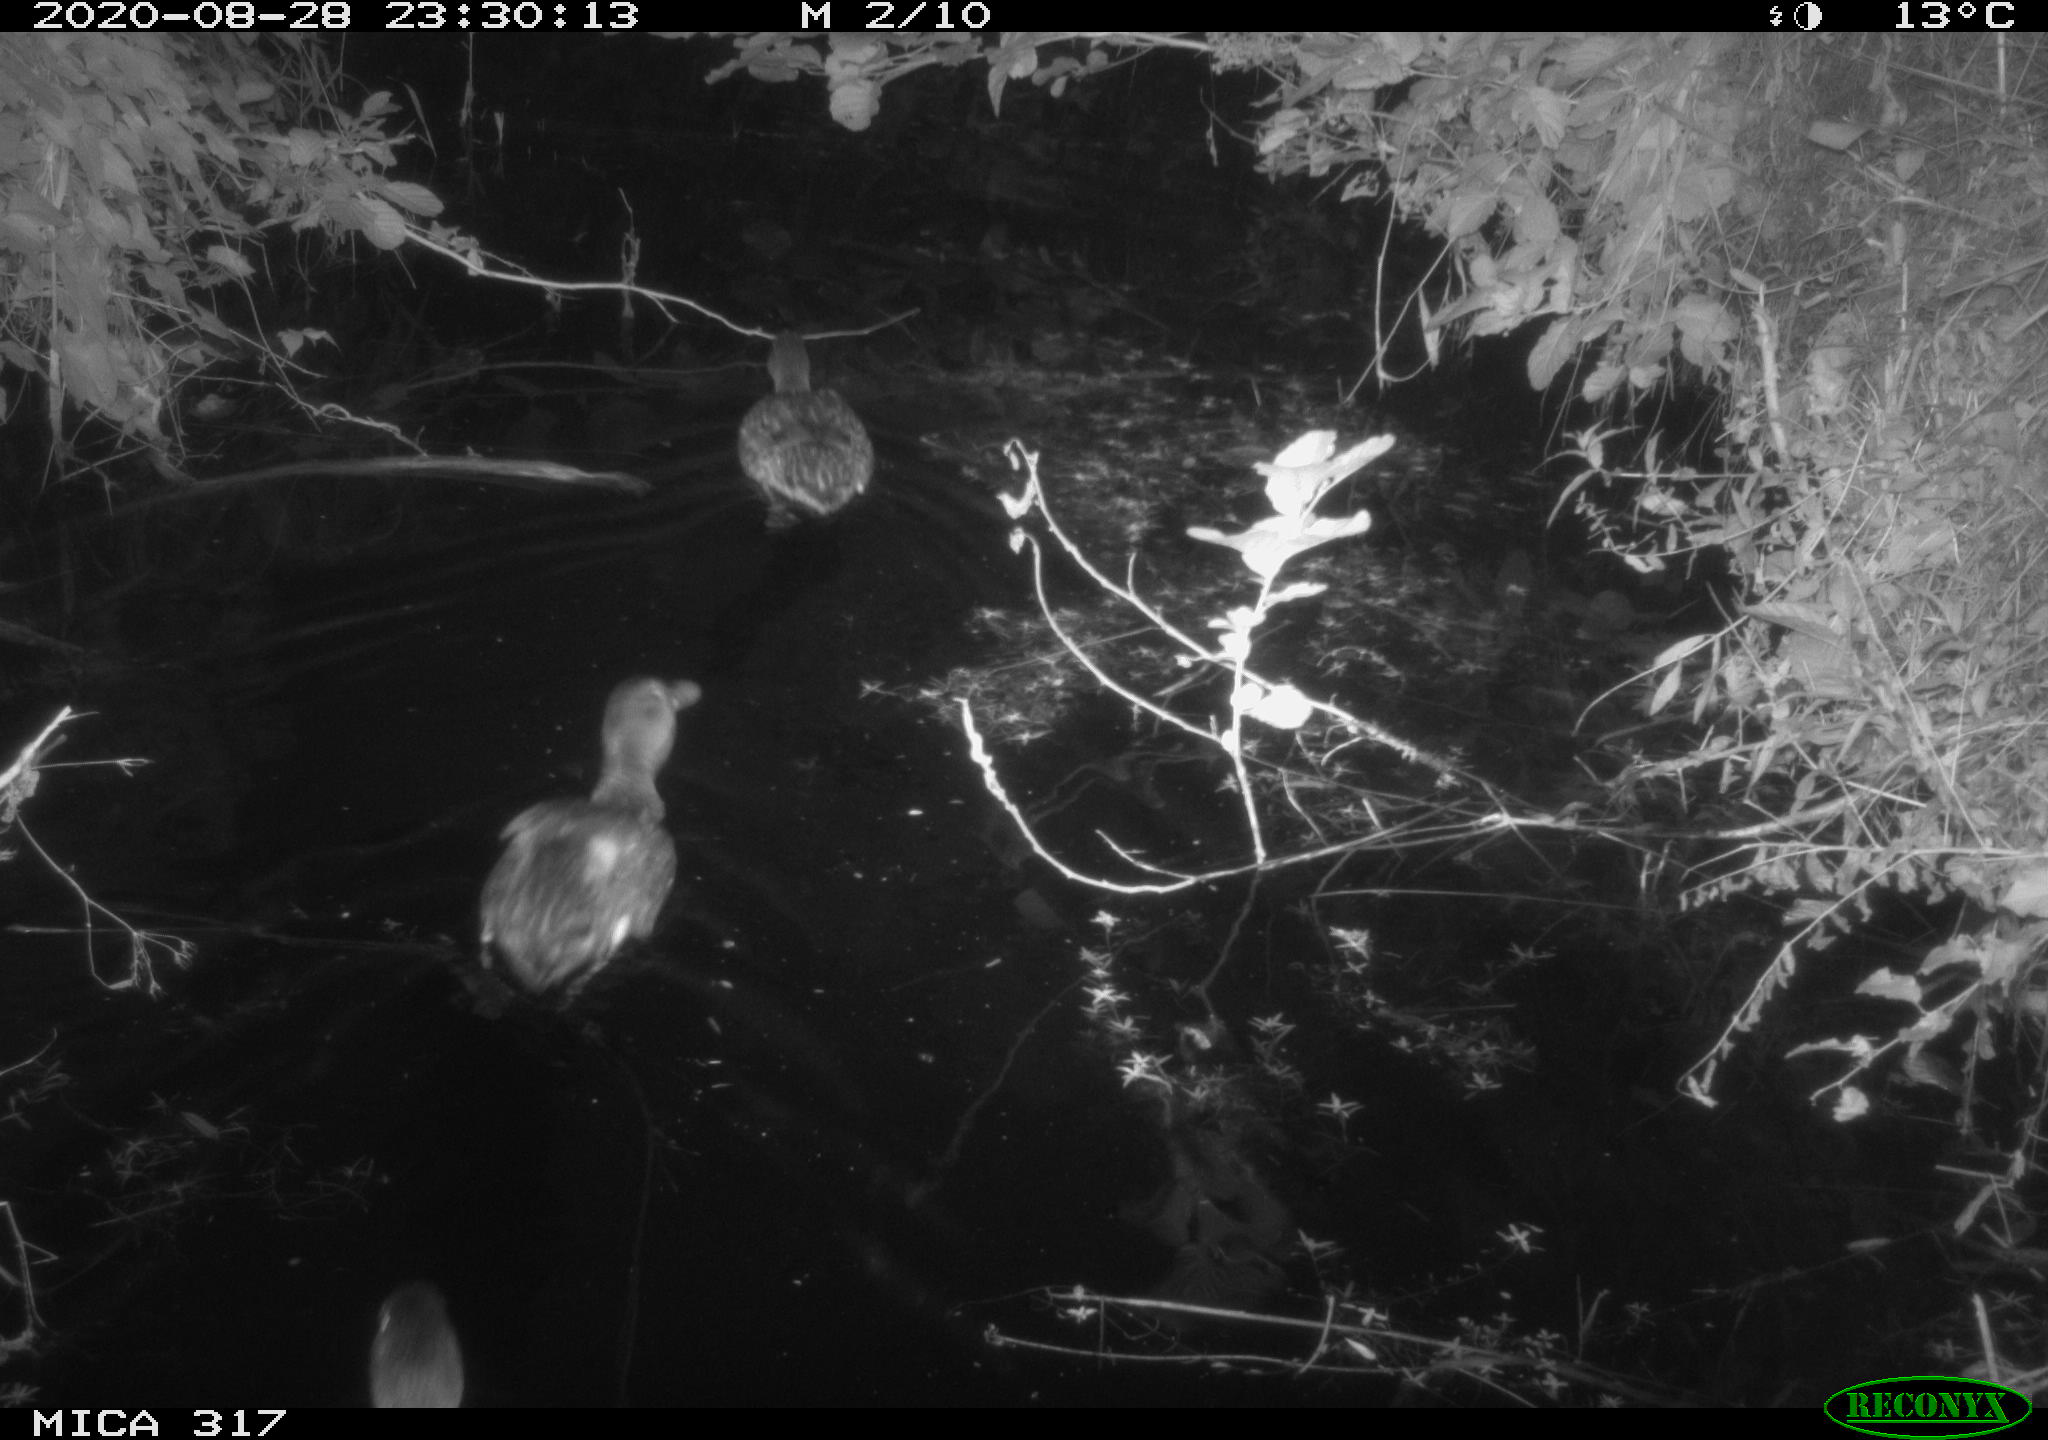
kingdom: Animalia
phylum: Chordata
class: Mammalia
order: Rodentia
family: Muridae
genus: Rattus
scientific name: Rattus norvegicus
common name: Brown rat
